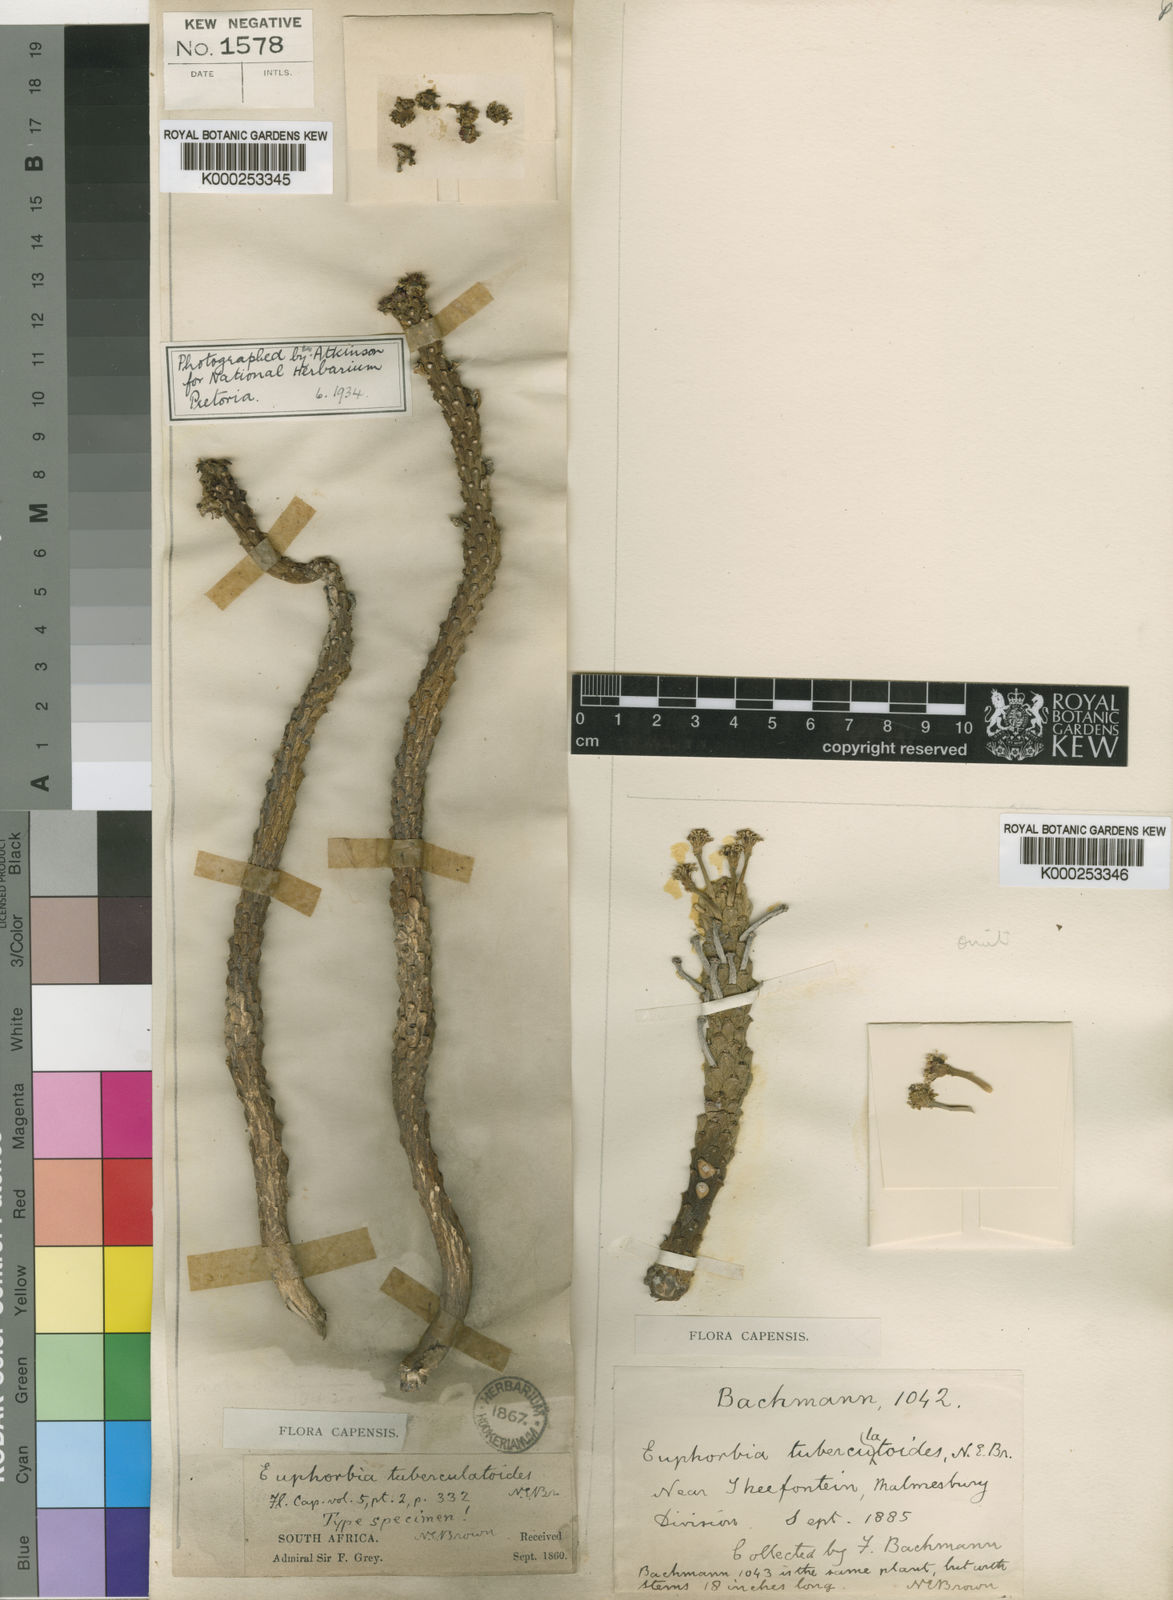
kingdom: Plantae
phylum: Tracheophyta
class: Magnoliopsida
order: Malpighiales
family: Euphorbiaceae
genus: Euphorbia
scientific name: Euphorbia caput-medusae
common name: Medusa's-head
